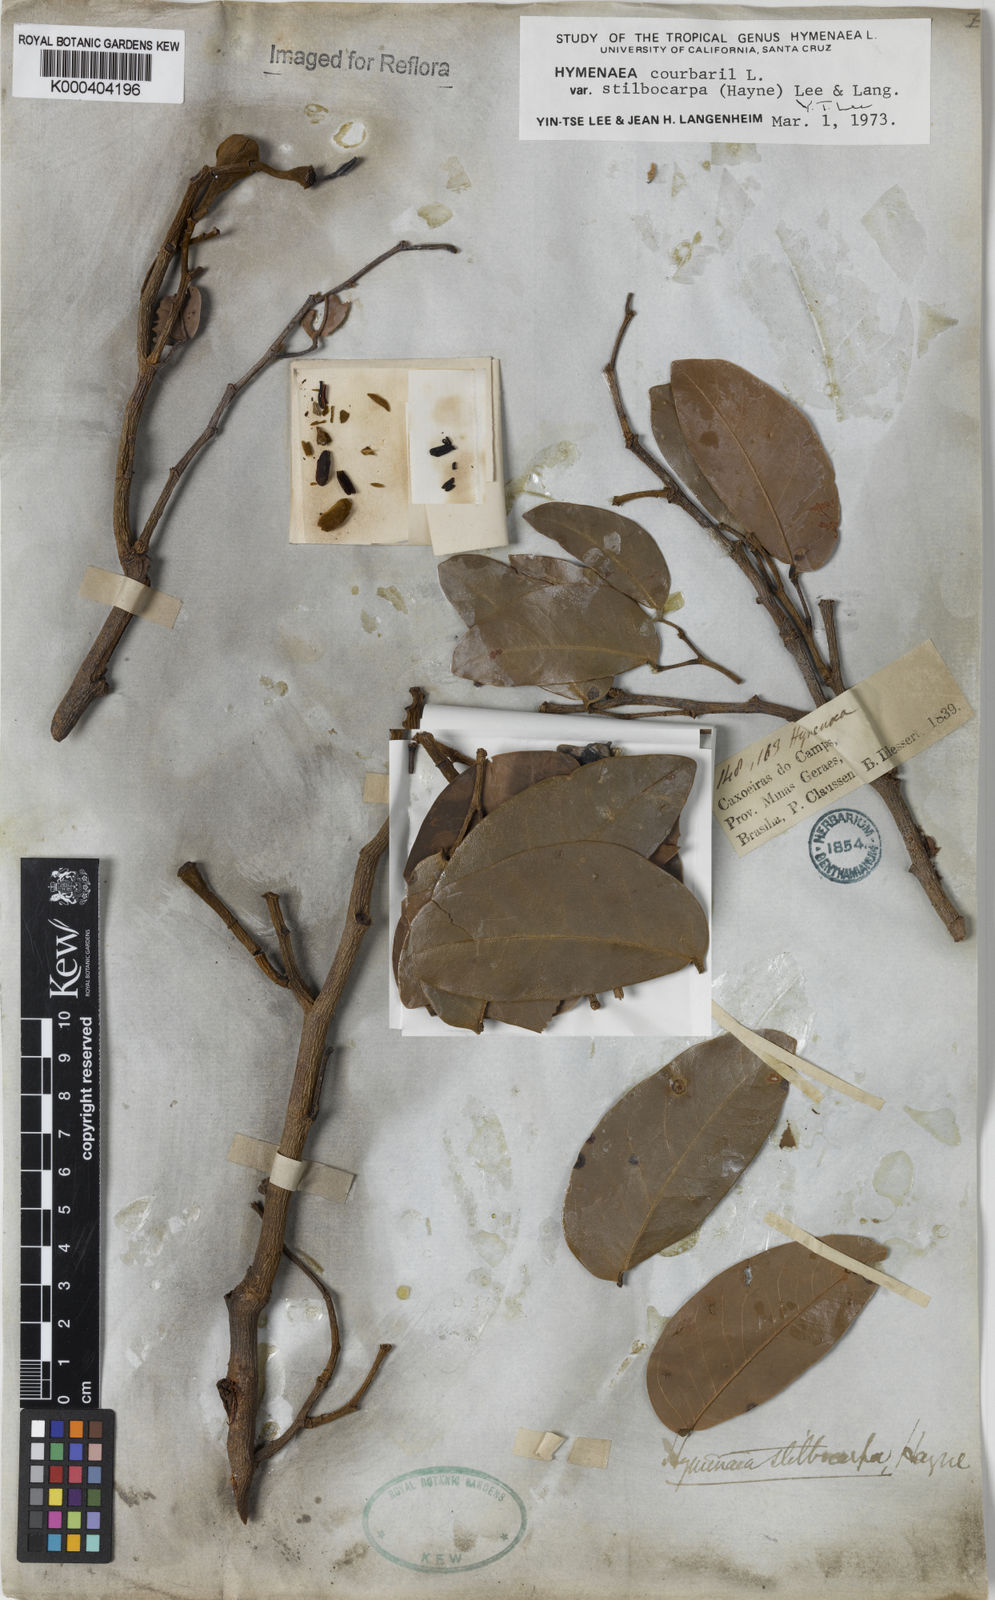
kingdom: Plantae
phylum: Tracheophyta
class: Magnoliopsida
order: Fabales
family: Fabaceae
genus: Hymenaea
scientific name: Hymenaea courbaril
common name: Brazilian copal
